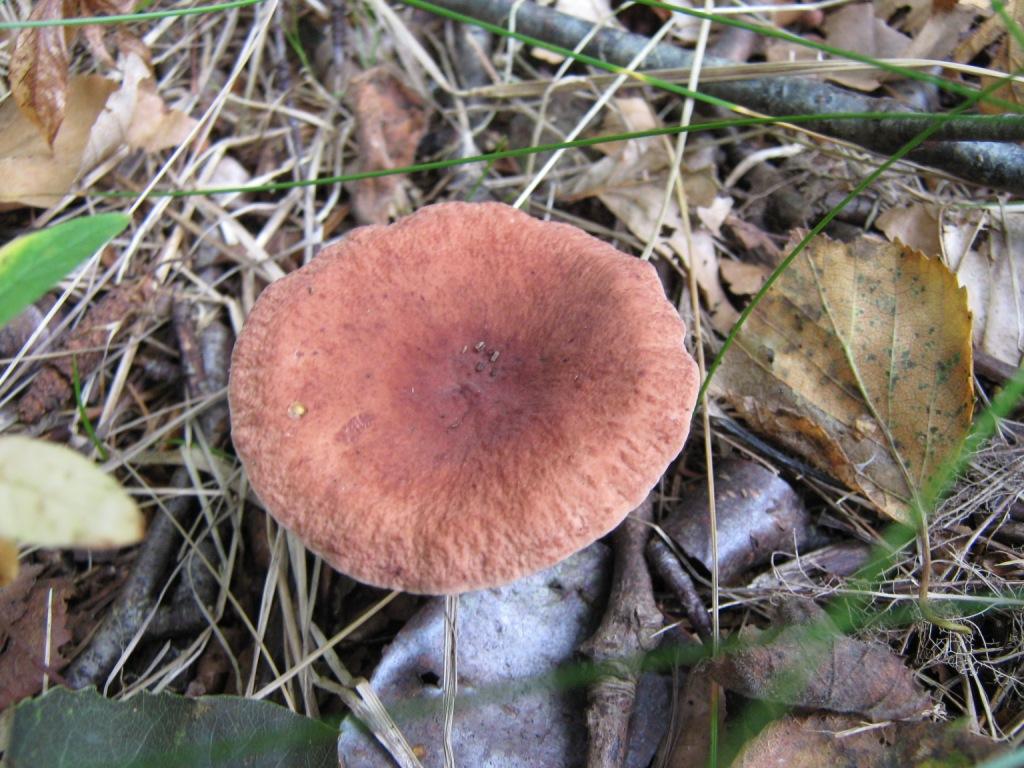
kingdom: Fungi
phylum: Basidiomycota
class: Agaricomycetes
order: Russulales
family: Russulaceae
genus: Lactarius
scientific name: Lactarius camphoratus
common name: kamfer-mælkehat
